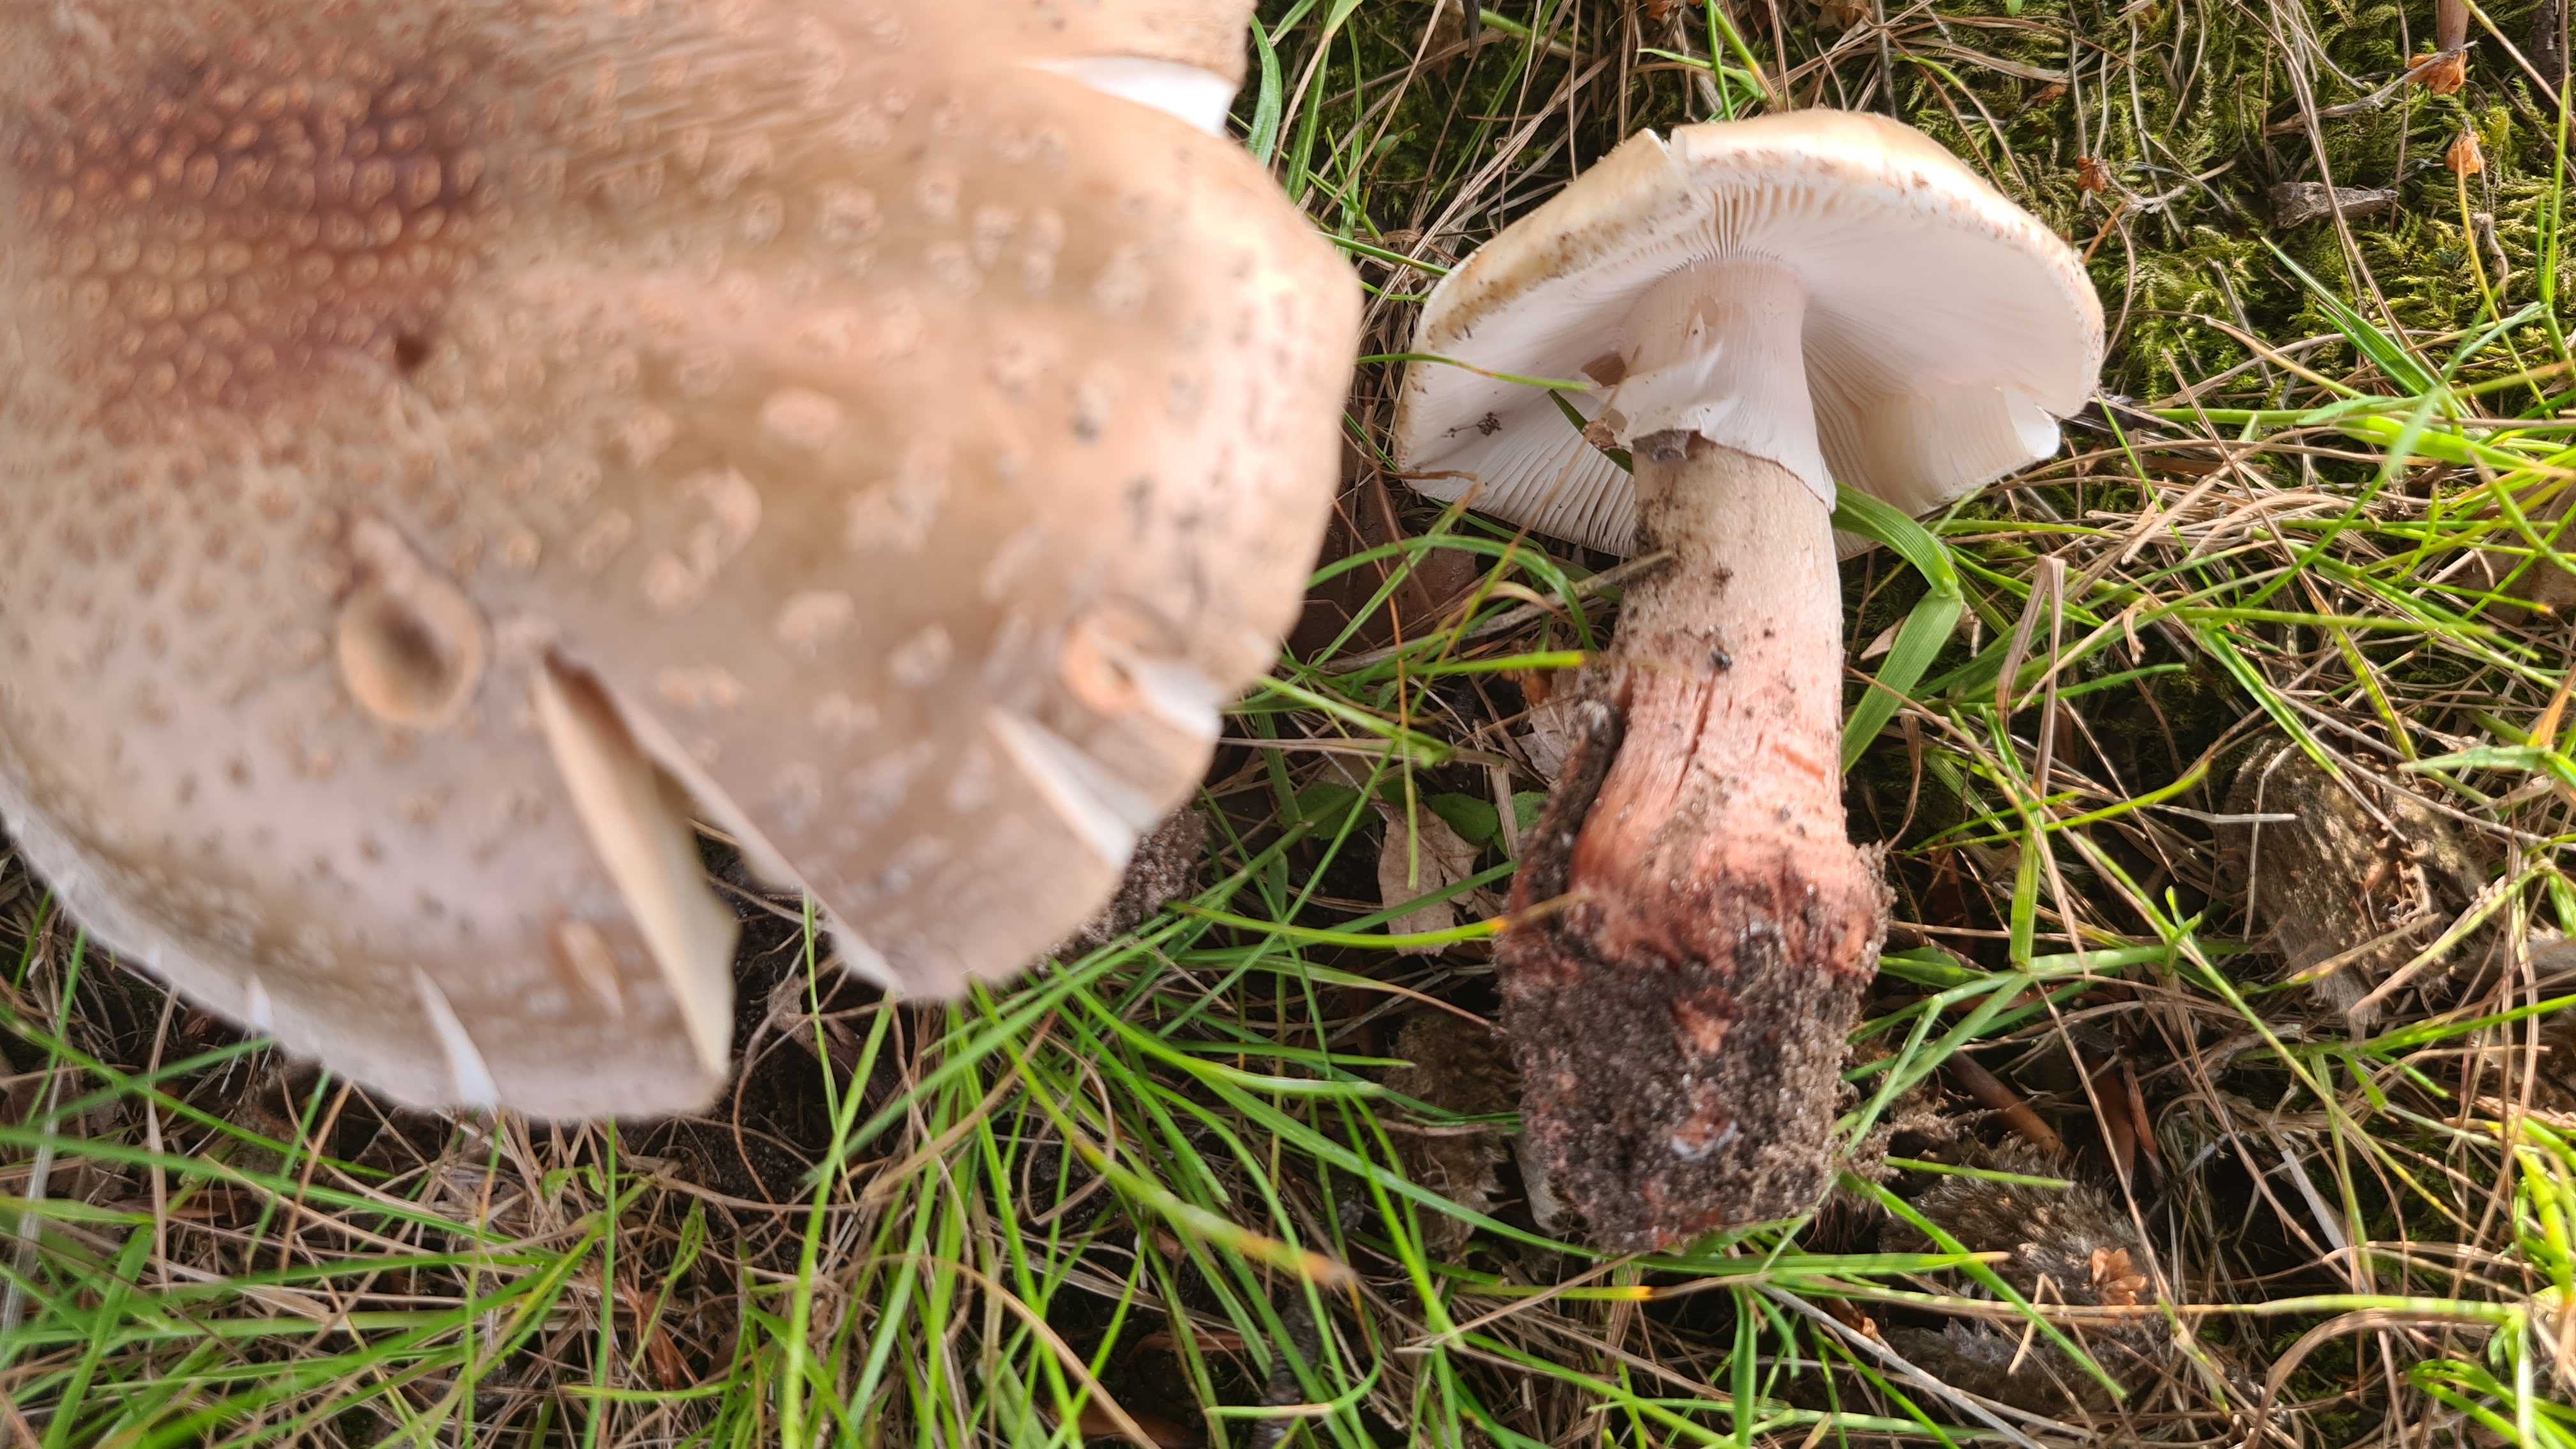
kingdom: Fungi
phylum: Basidiomycota
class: Agaricomycetes
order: Agaricales
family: Amanitaceae
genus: Amanita
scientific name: Amanita rubescens
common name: rødmende fluesvamp
